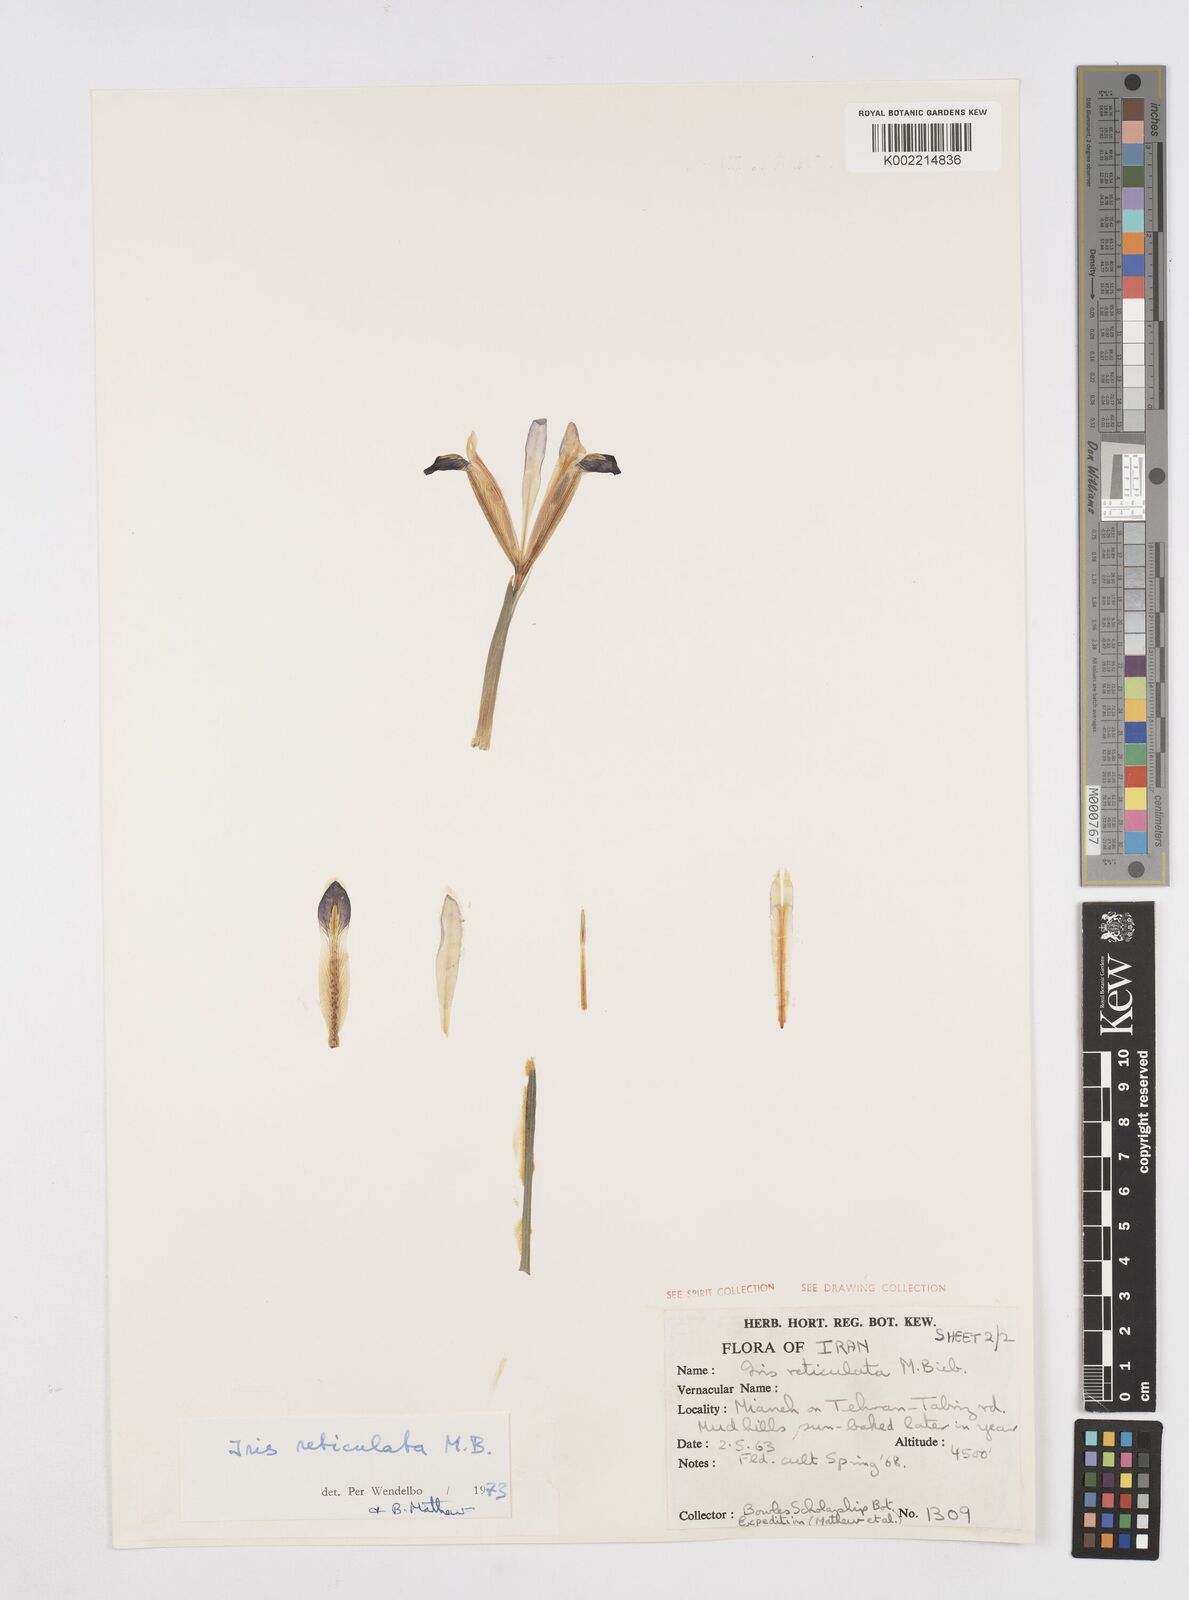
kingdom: Plantae
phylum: Tracheophyta
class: Liliopsida
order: Asparagales
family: Iridaceae
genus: Iris
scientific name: Iris reticulata
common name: Netted iris
